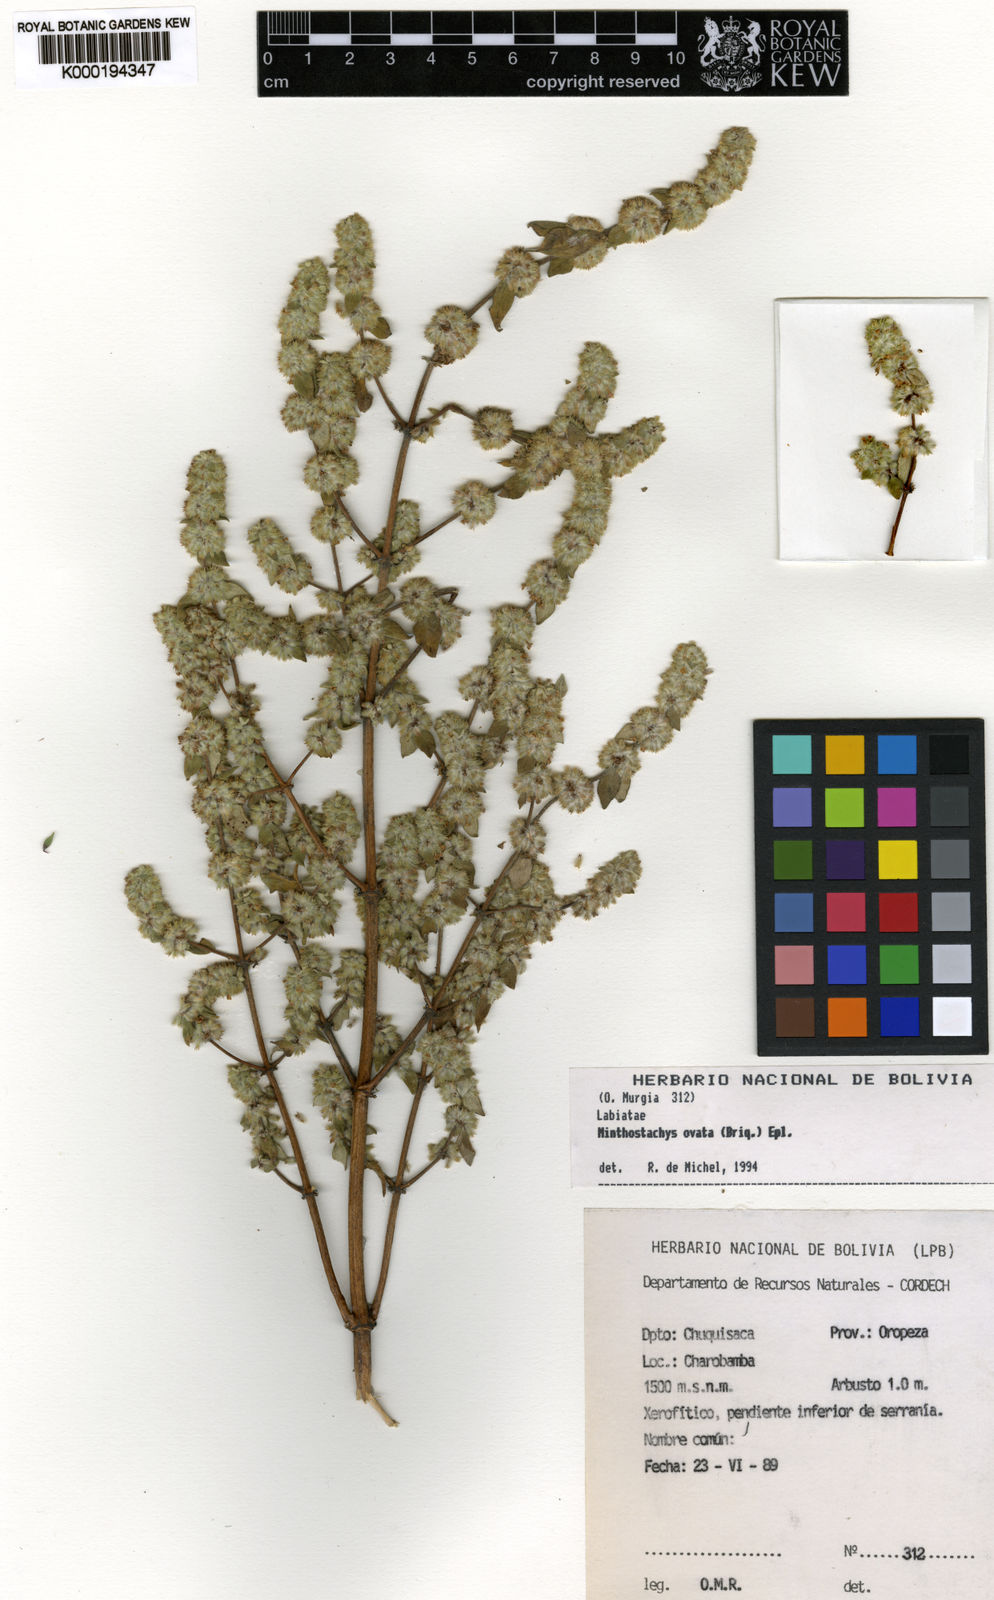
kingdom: Plantae
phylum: Tracheophyta
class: Magnoliopsida
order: Lamiales
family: Lamiaceae
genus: Minthostachys
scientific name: Minthostachys ovata
